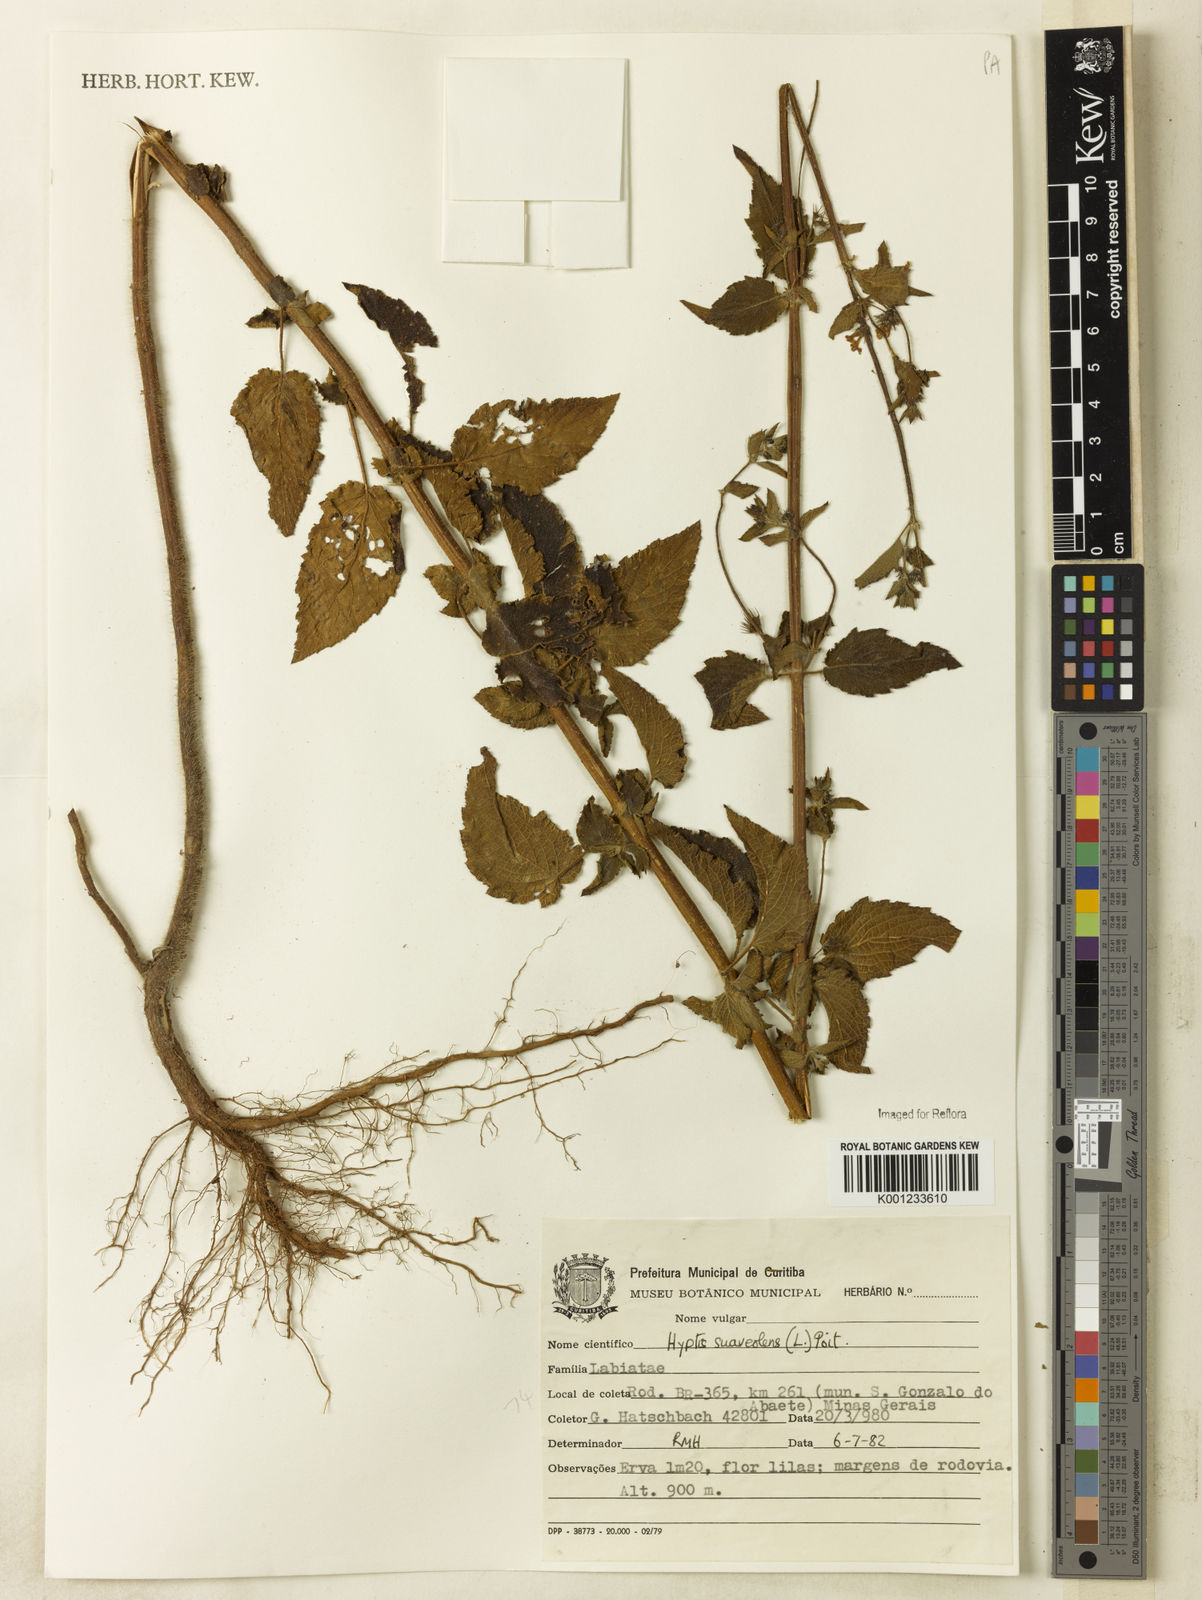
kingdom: Plantae
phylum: Tracheophyta
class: Magnoliopsida
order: Lamiales
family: Lamiaceae
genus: Mesosphaerum
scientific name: Mesosphaerum suaveolens
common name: Pignut
